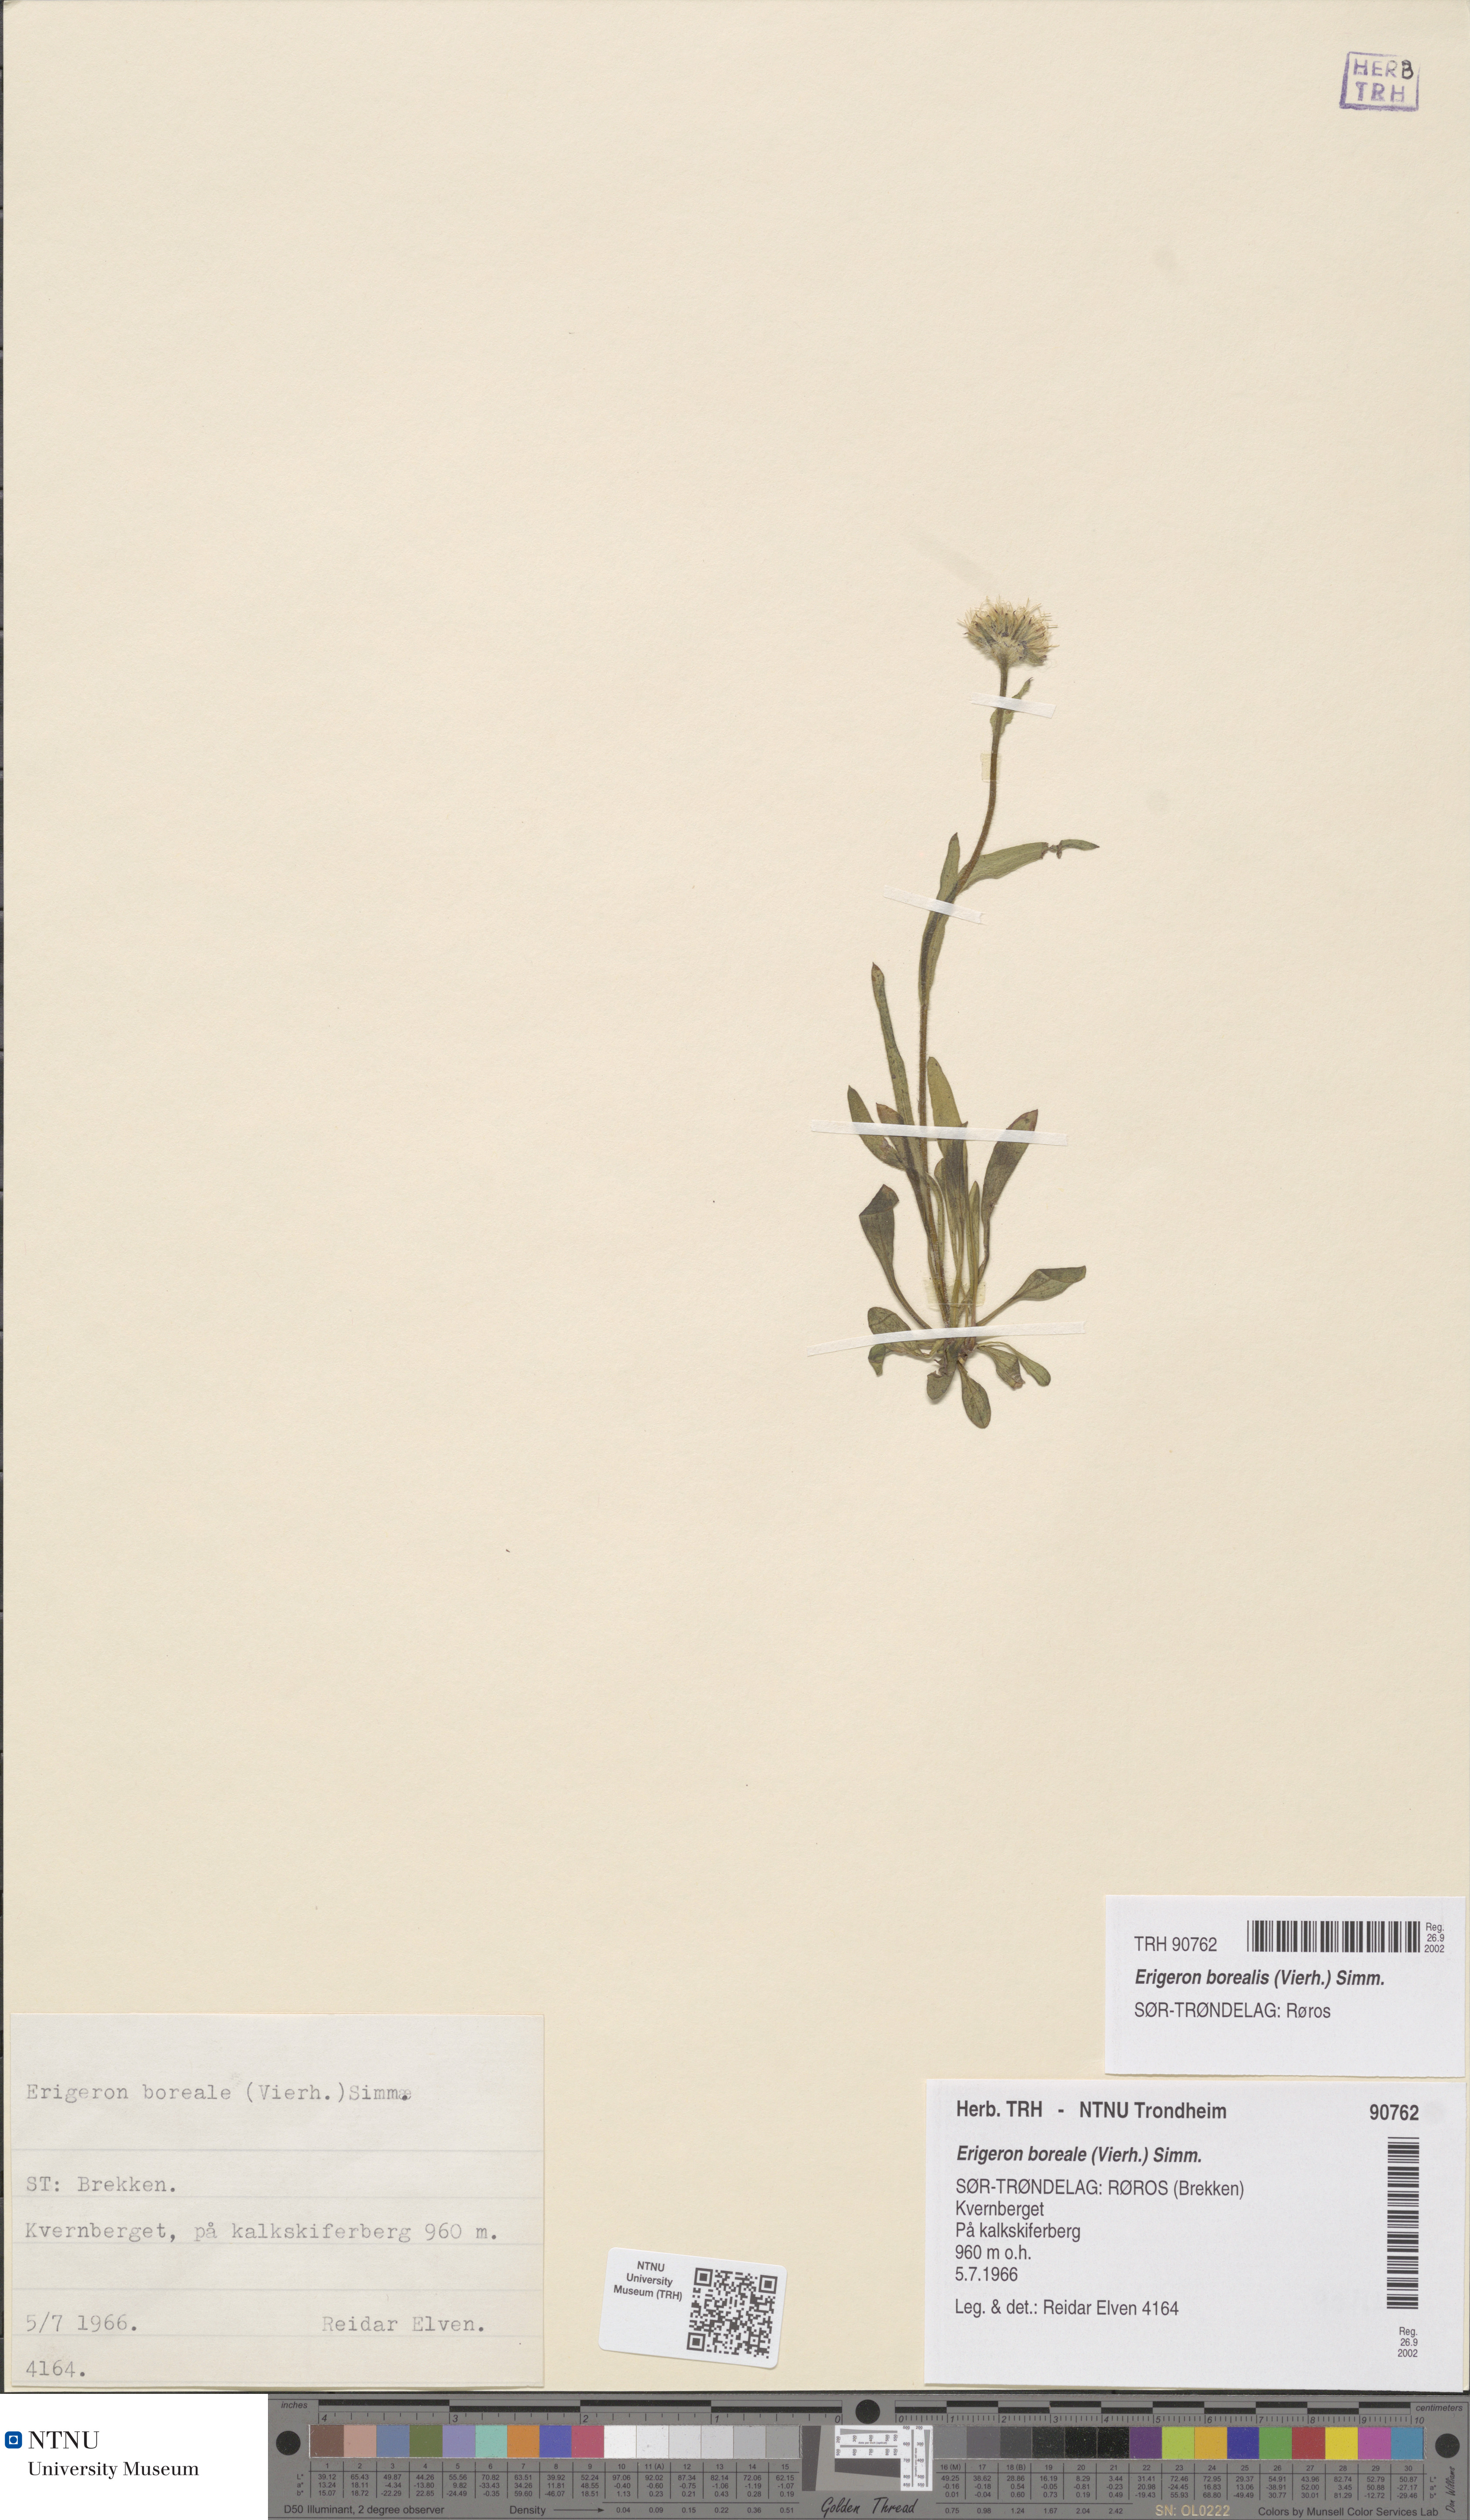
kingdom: Plantae
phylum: Tracheophyta
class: Magnoliopsida
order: Asterales
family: Asteraceae
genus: Erigeron
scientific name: Erigeron borealis
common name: Alpine fleabane
